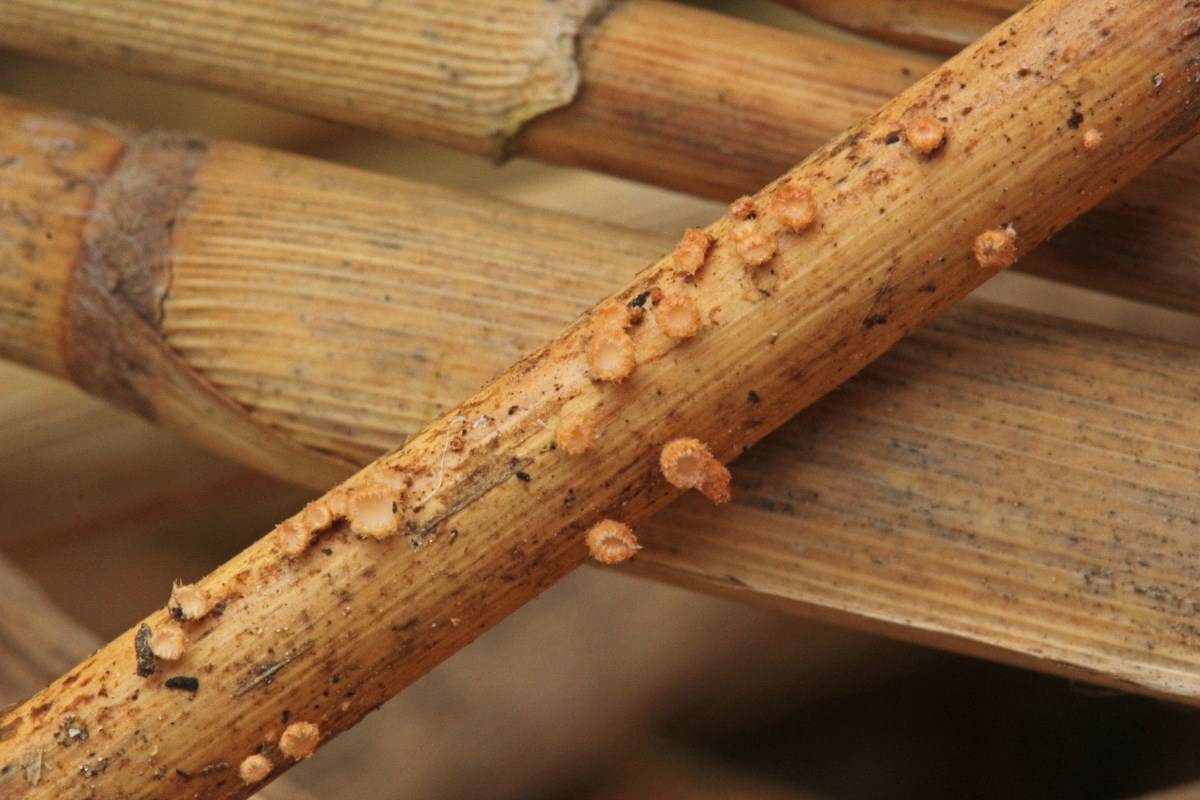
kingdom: Fungi
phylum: Ascomycota
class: Leotiomycetes
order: Helotiales
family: Lachnaceae
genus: Albotricha
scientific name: Albotricha albotestacea
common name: rosa frynseskive
